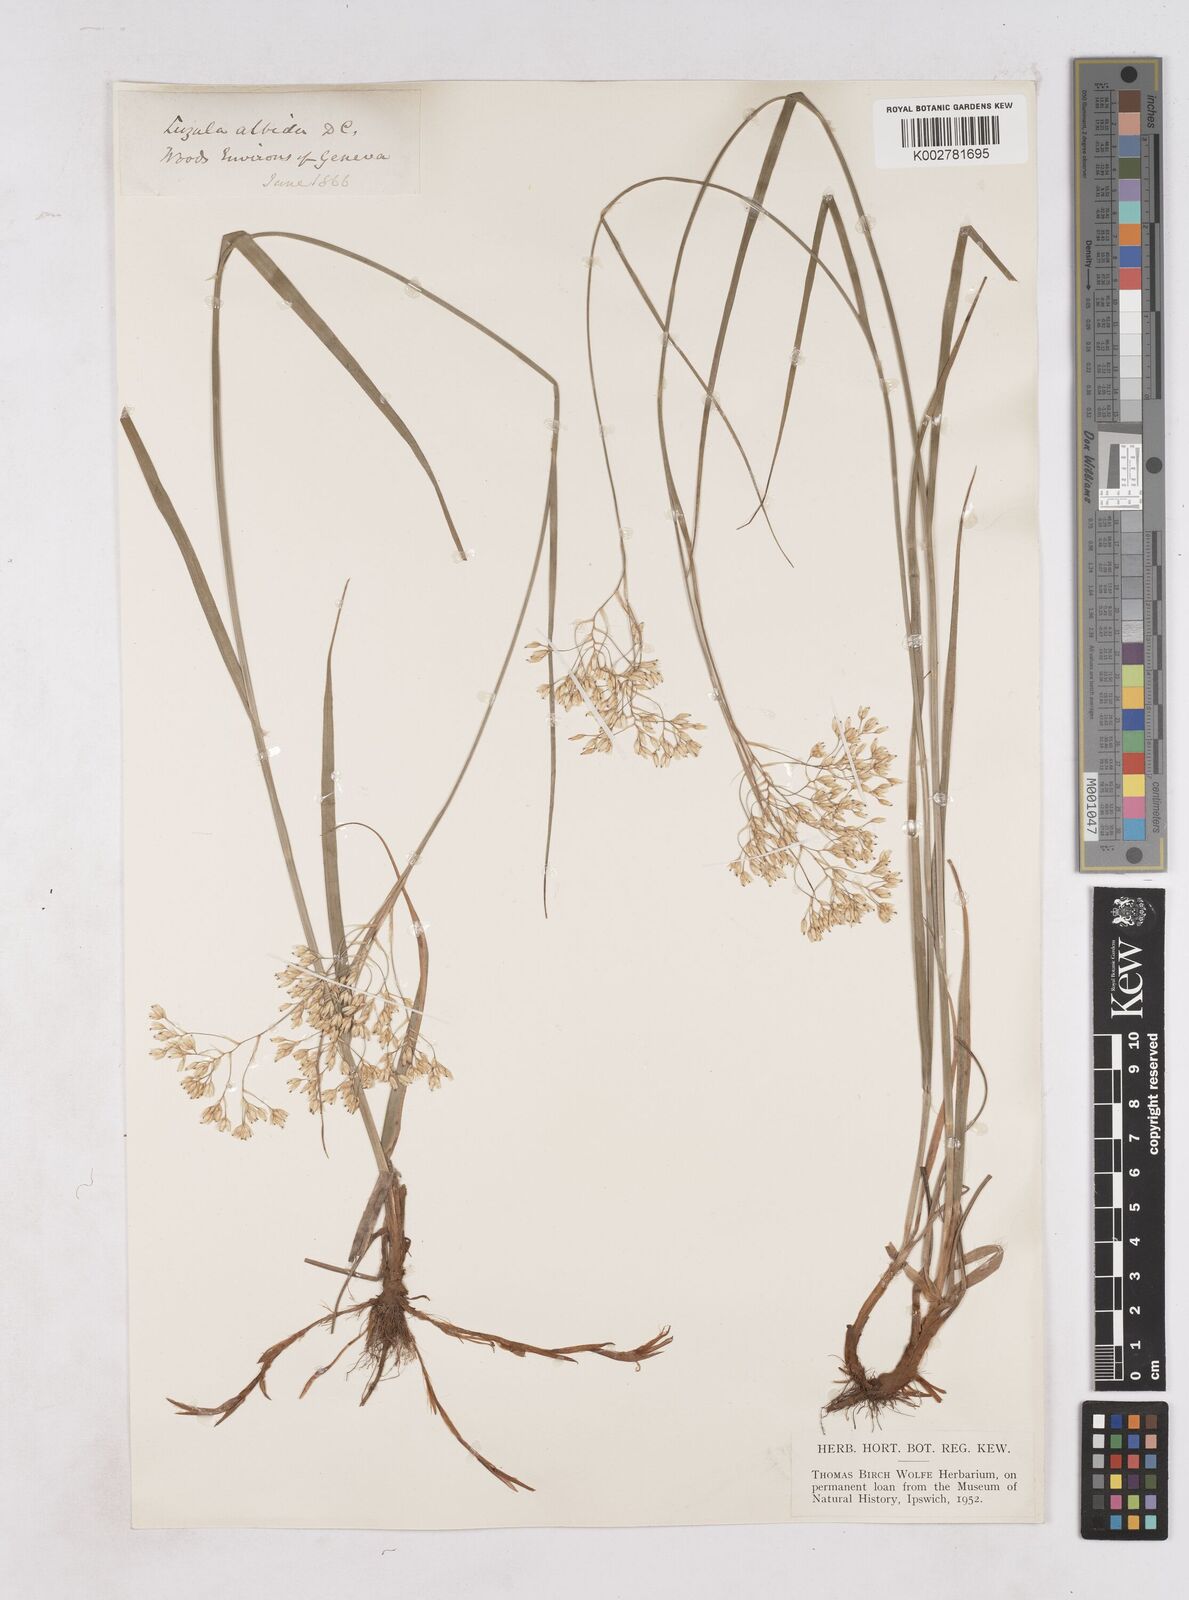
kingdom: Plantae
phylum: Tracheophyta
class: Liliopsida
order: Poales
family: Juncaceae
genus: Luzula
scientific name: Luzula luzuloides
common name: White wood-rush
